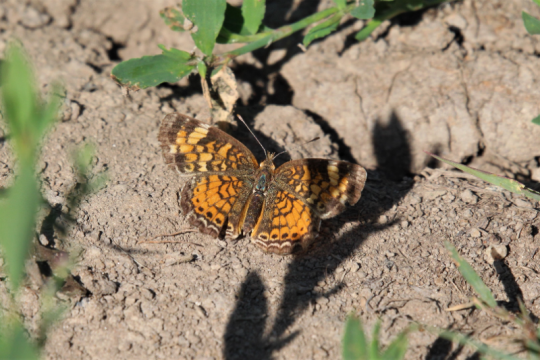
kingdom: Animalia
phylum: Arthropoda
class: Insecta
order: Lepidoptera
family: Nymphalidae
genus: Phyciodes
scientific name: Phyciodes tharos
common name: Pearl Crescent
